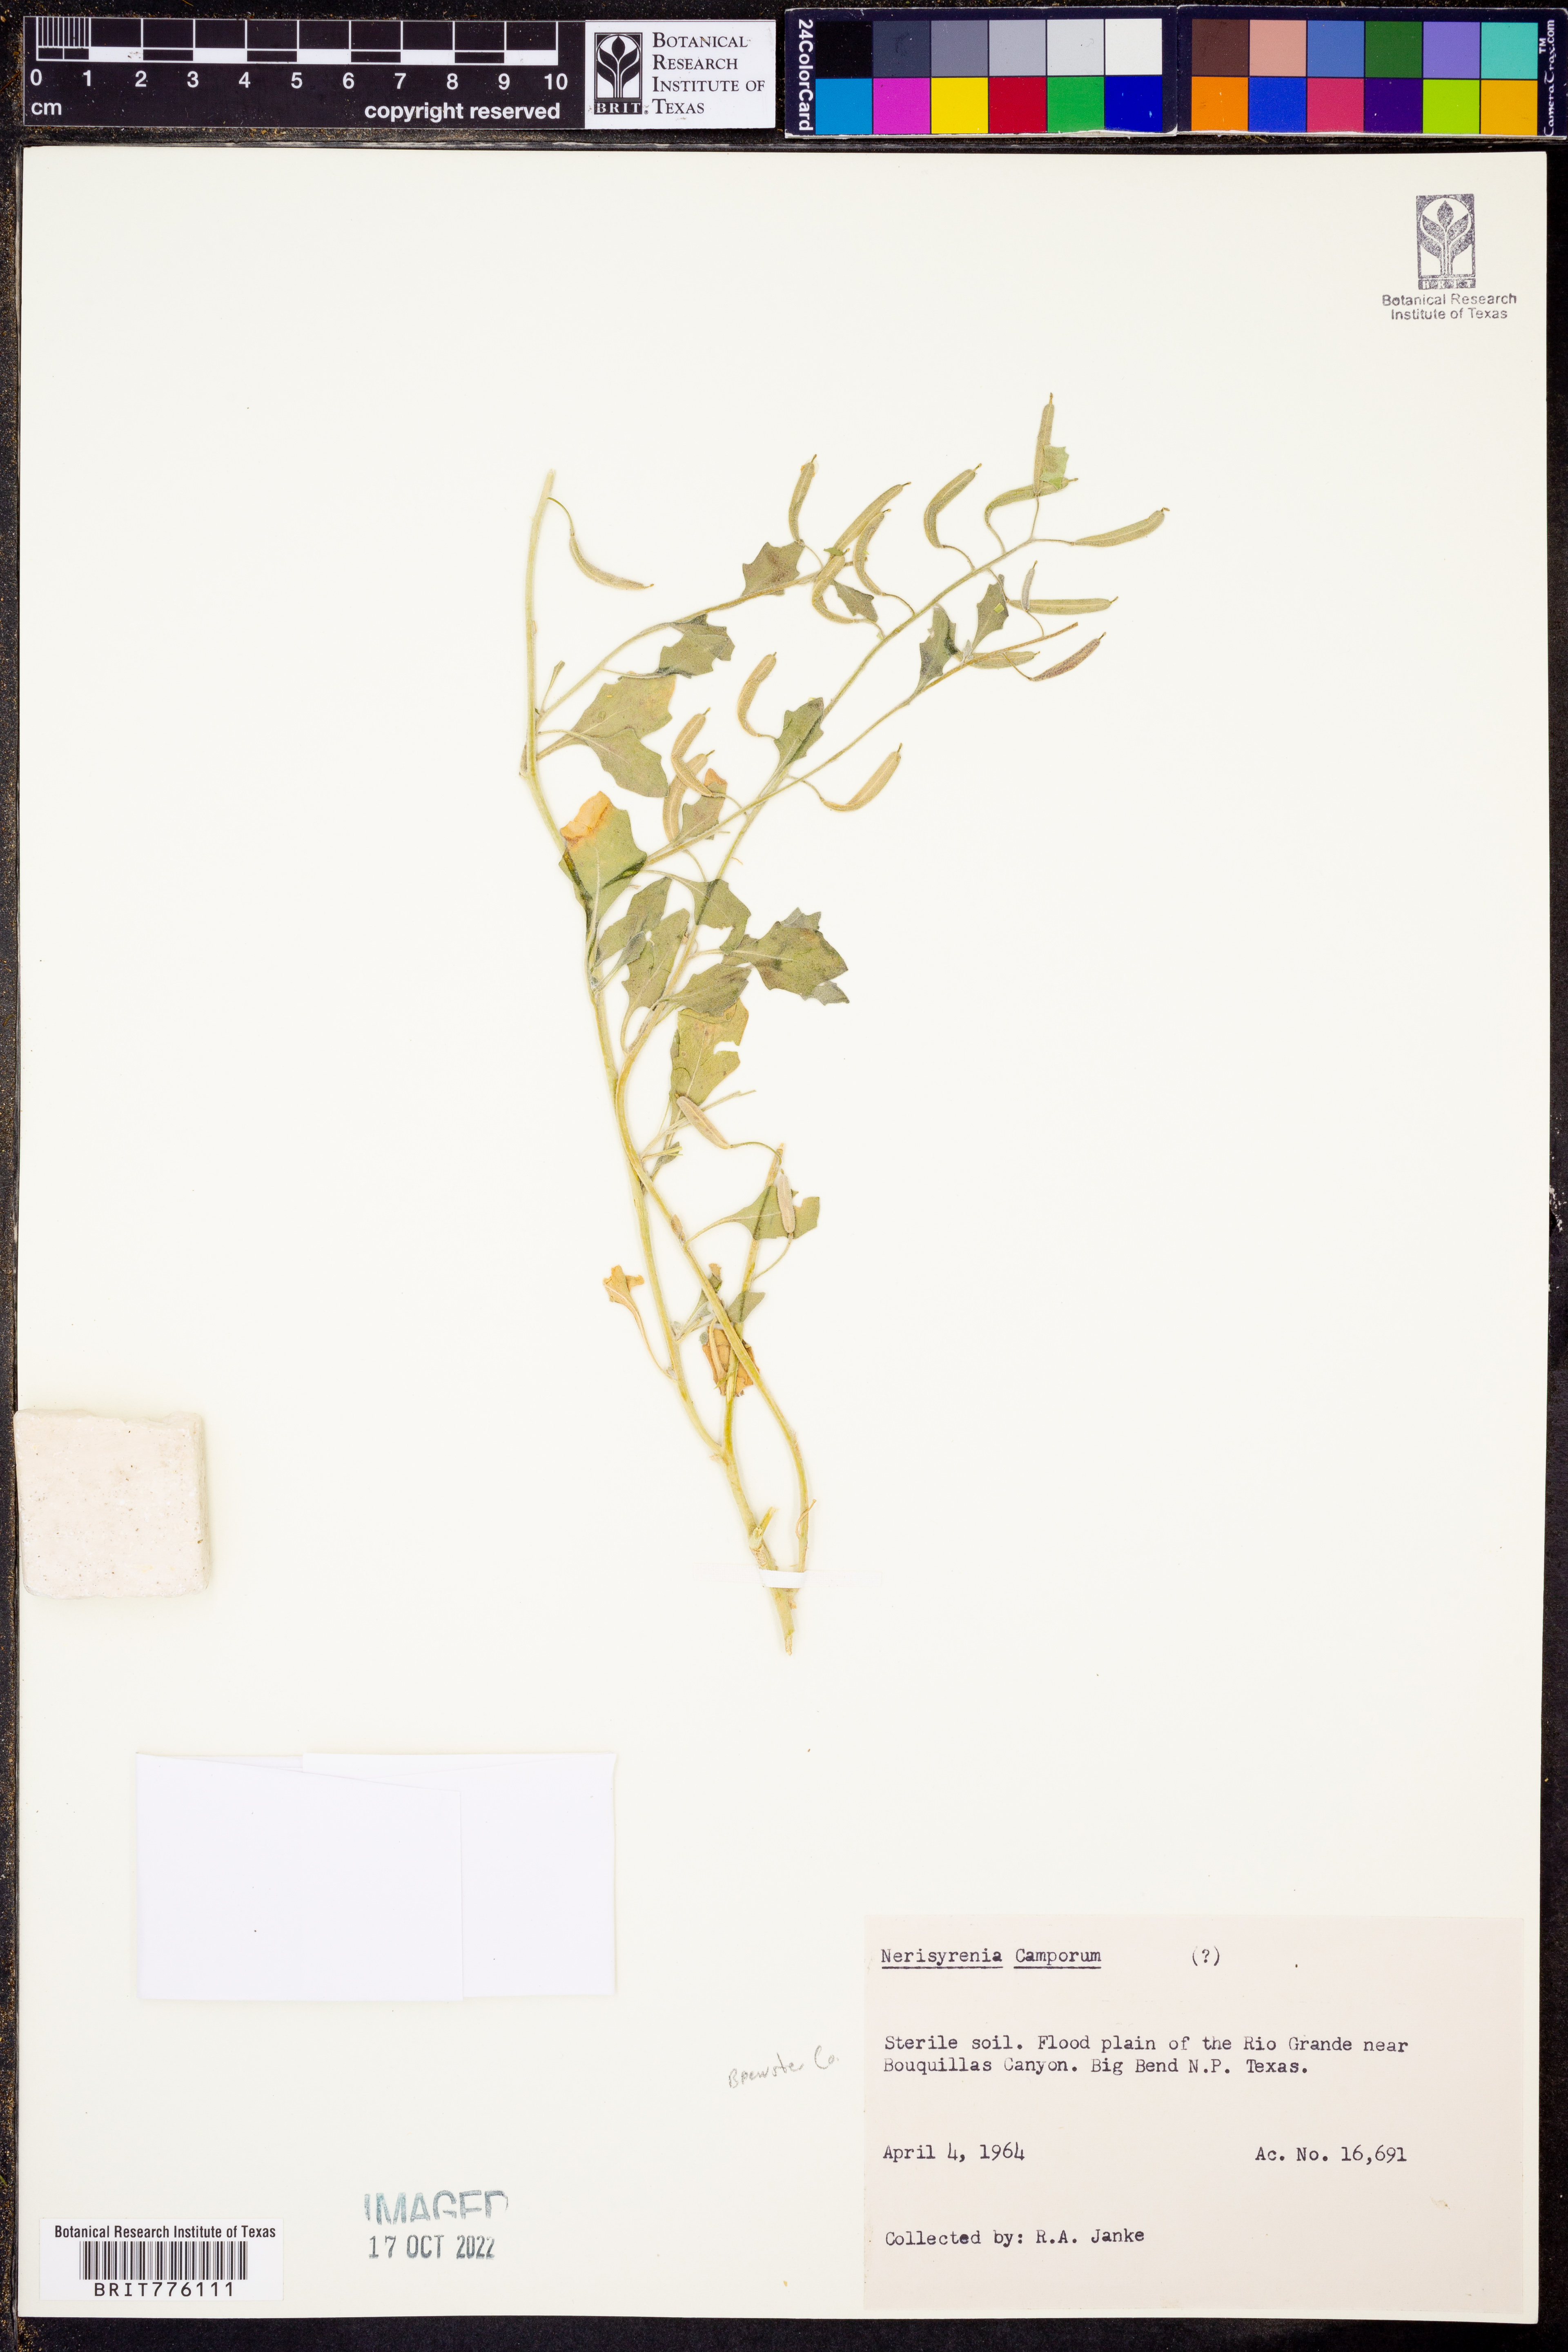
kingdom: Plantae
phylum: Tracheophyta
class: Magnoliopsida
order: Brassicales
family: Brassicaceae
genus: Nerisyrenia
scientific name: Nerisyrenia camporum
